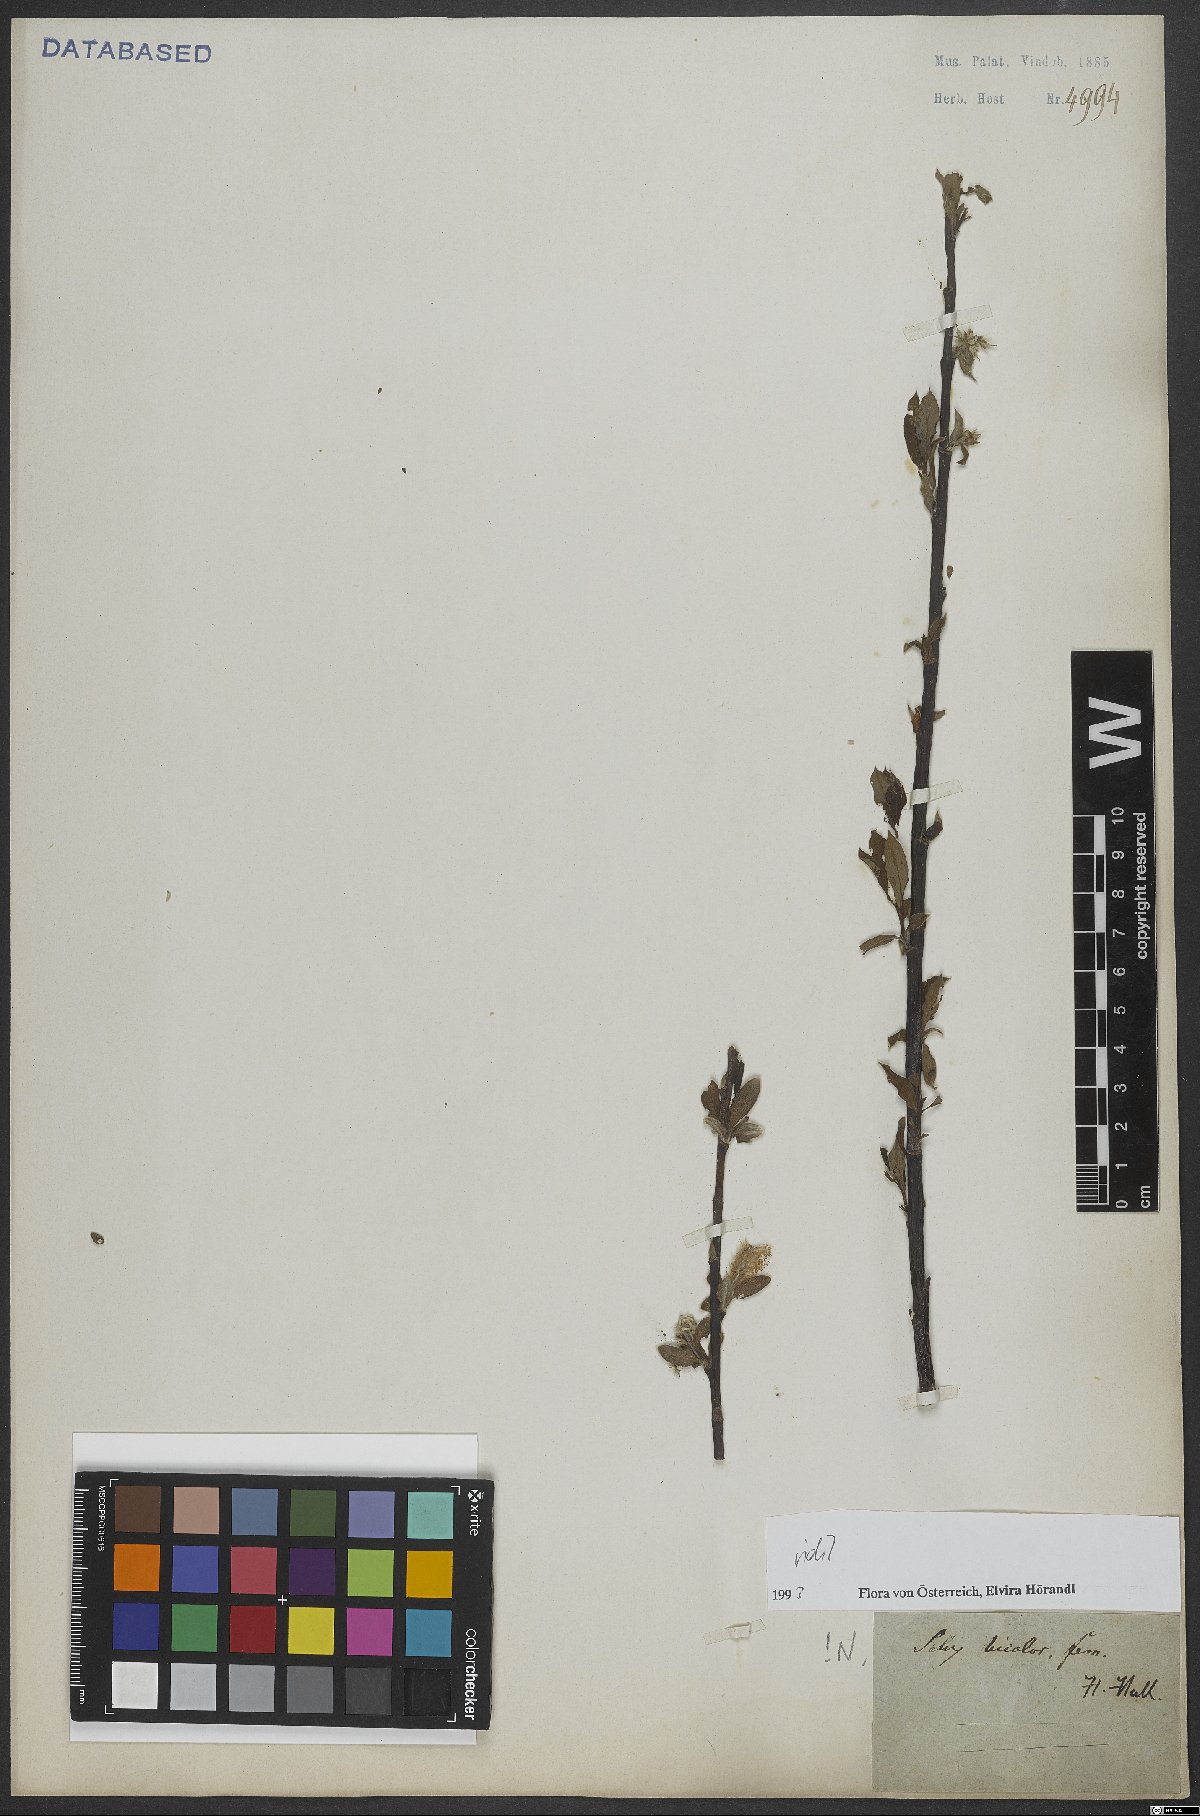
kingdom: Plantae
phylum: Tracheophyta
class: Magnoliopsida
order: Malpighiales
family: Salicaceae
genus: Salix
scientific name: Salix bicolor
